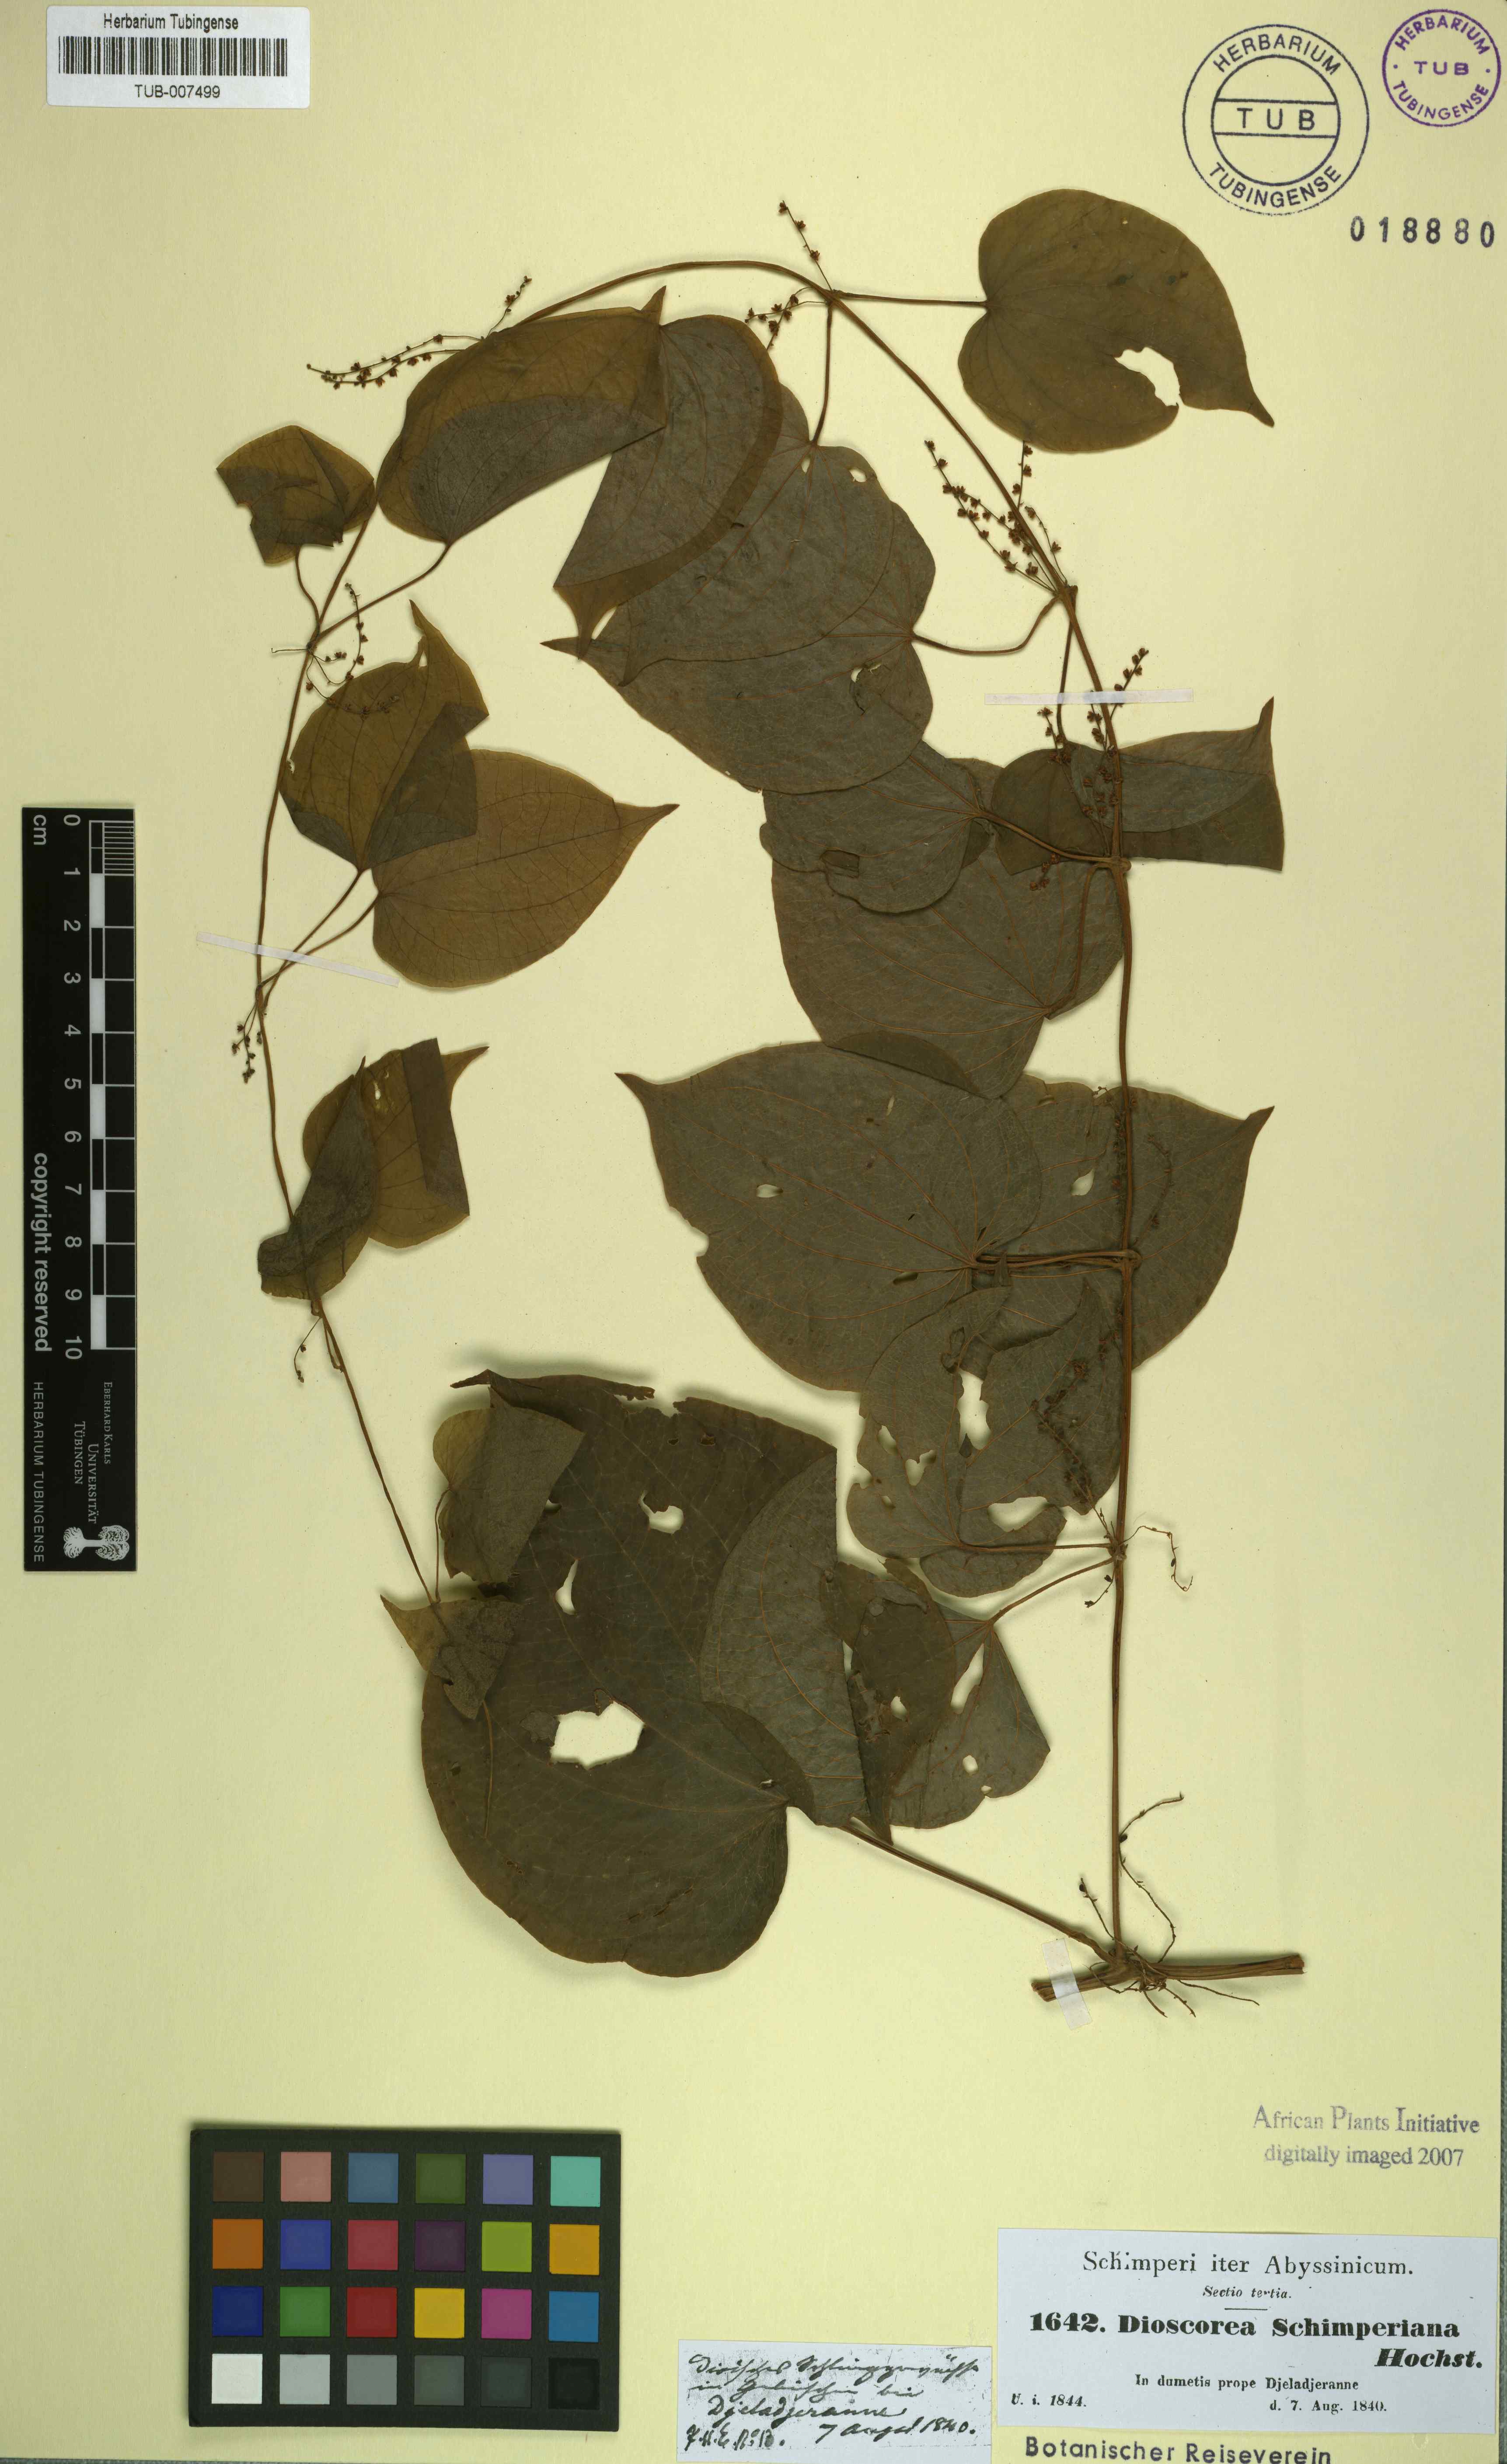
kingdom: Plantae
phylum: Tracheophyta
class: Liliopsida
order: Dioscoreales
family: Dioscoreaceae
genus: Dioscorea
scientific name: Dioscorea schimperiana
